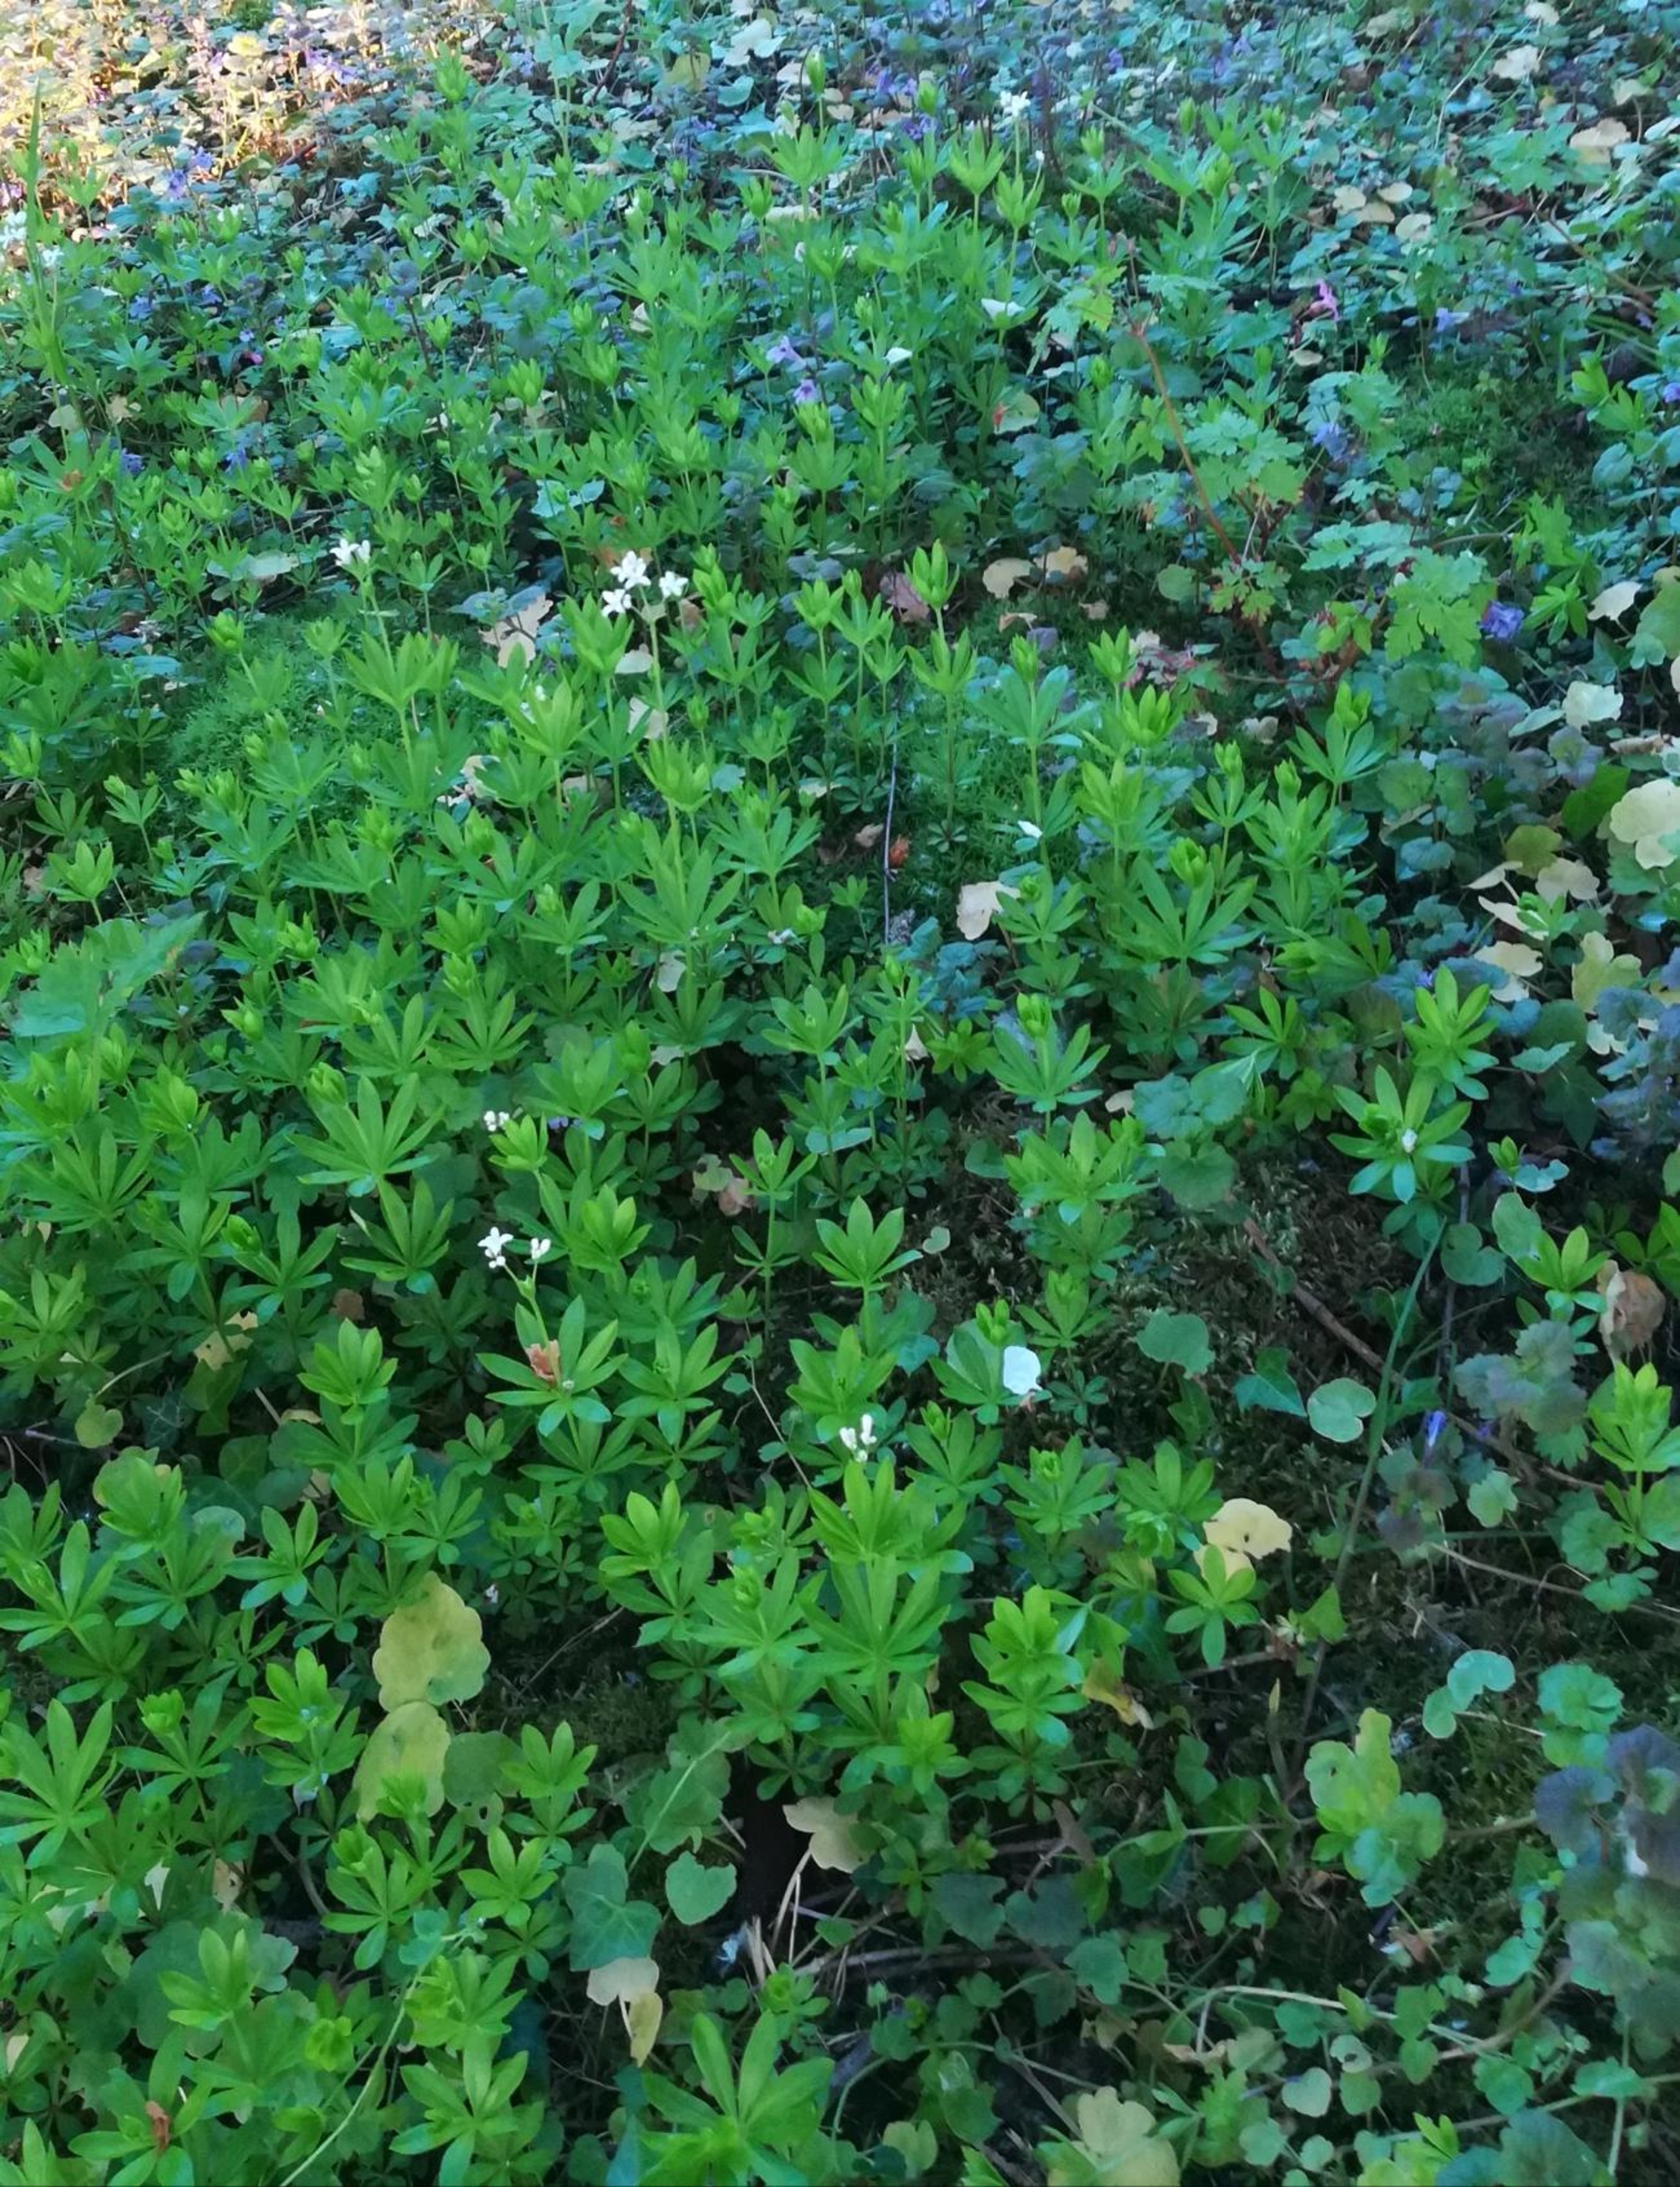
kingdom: Plantae
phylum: Tracheophyta
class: Magnoliopsida
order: Gentianales
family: Rubiaceae
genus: Galium
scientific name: Galium odoratum
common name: Skovmærke
